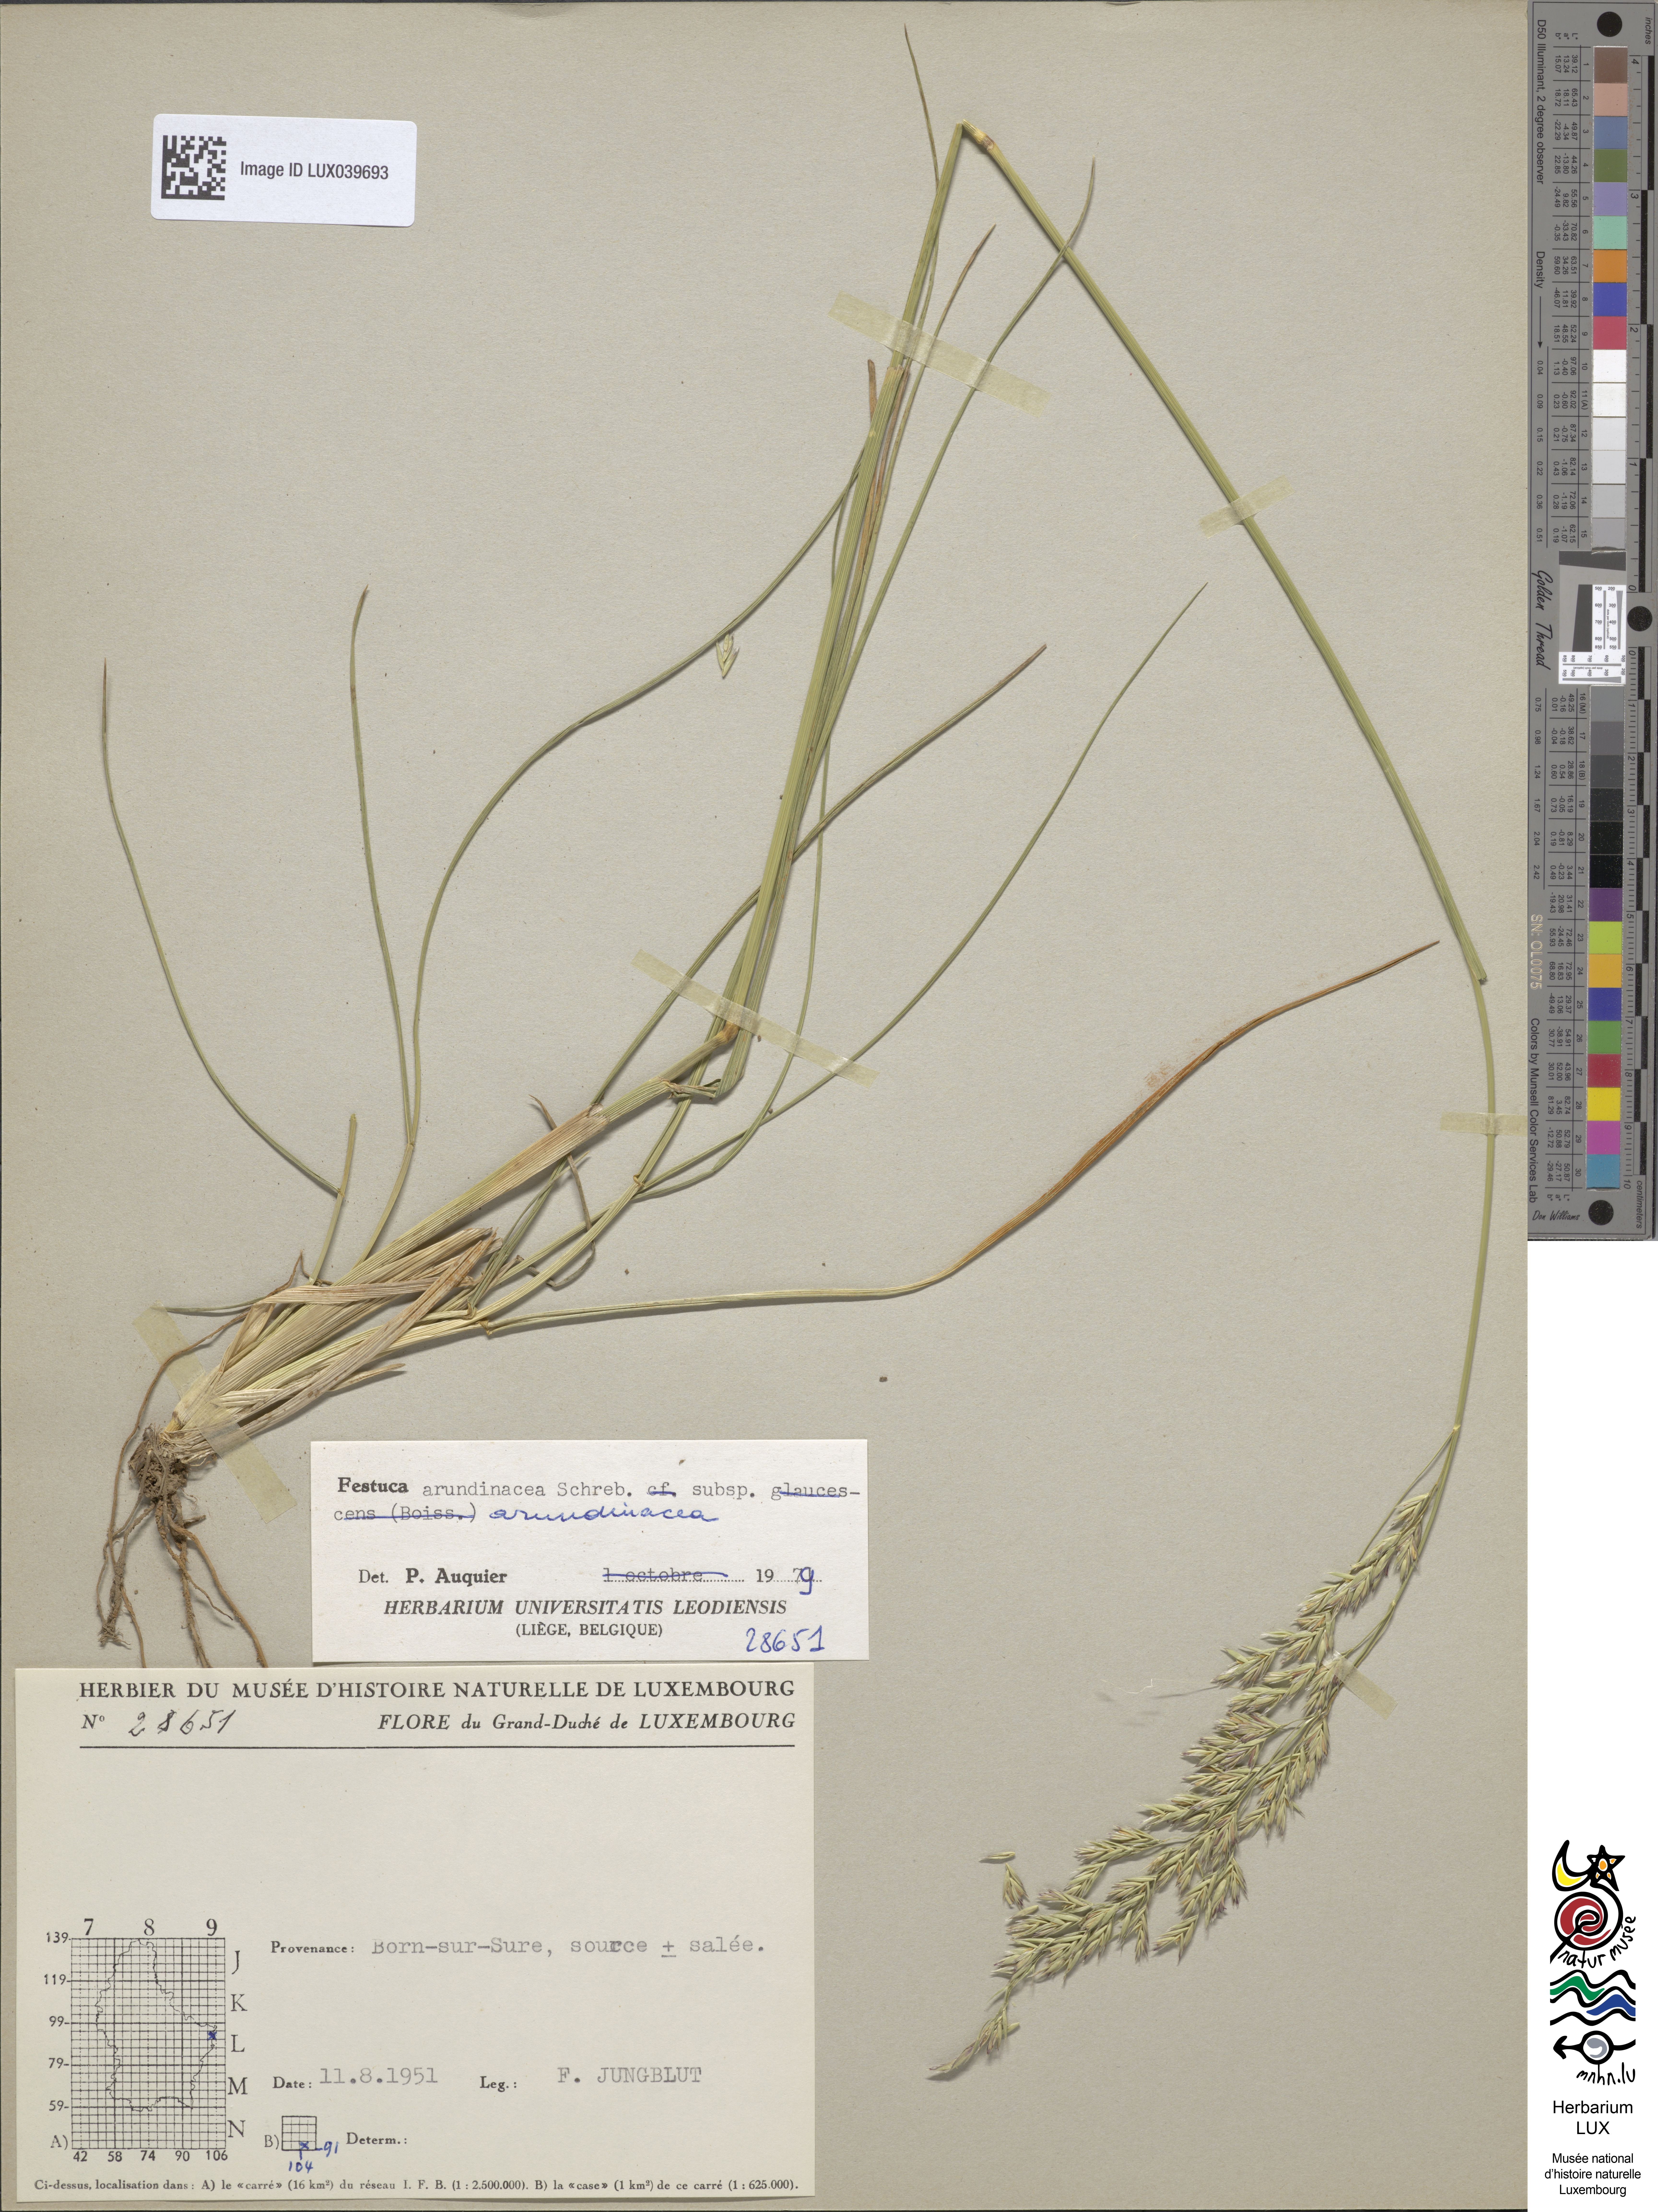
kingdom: Plantae
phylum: Tracheophyta
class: Liliopsida
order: Poales
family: Poaceae
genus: Lolium
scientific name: Lolium arundinaceum
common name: Reed fescue
